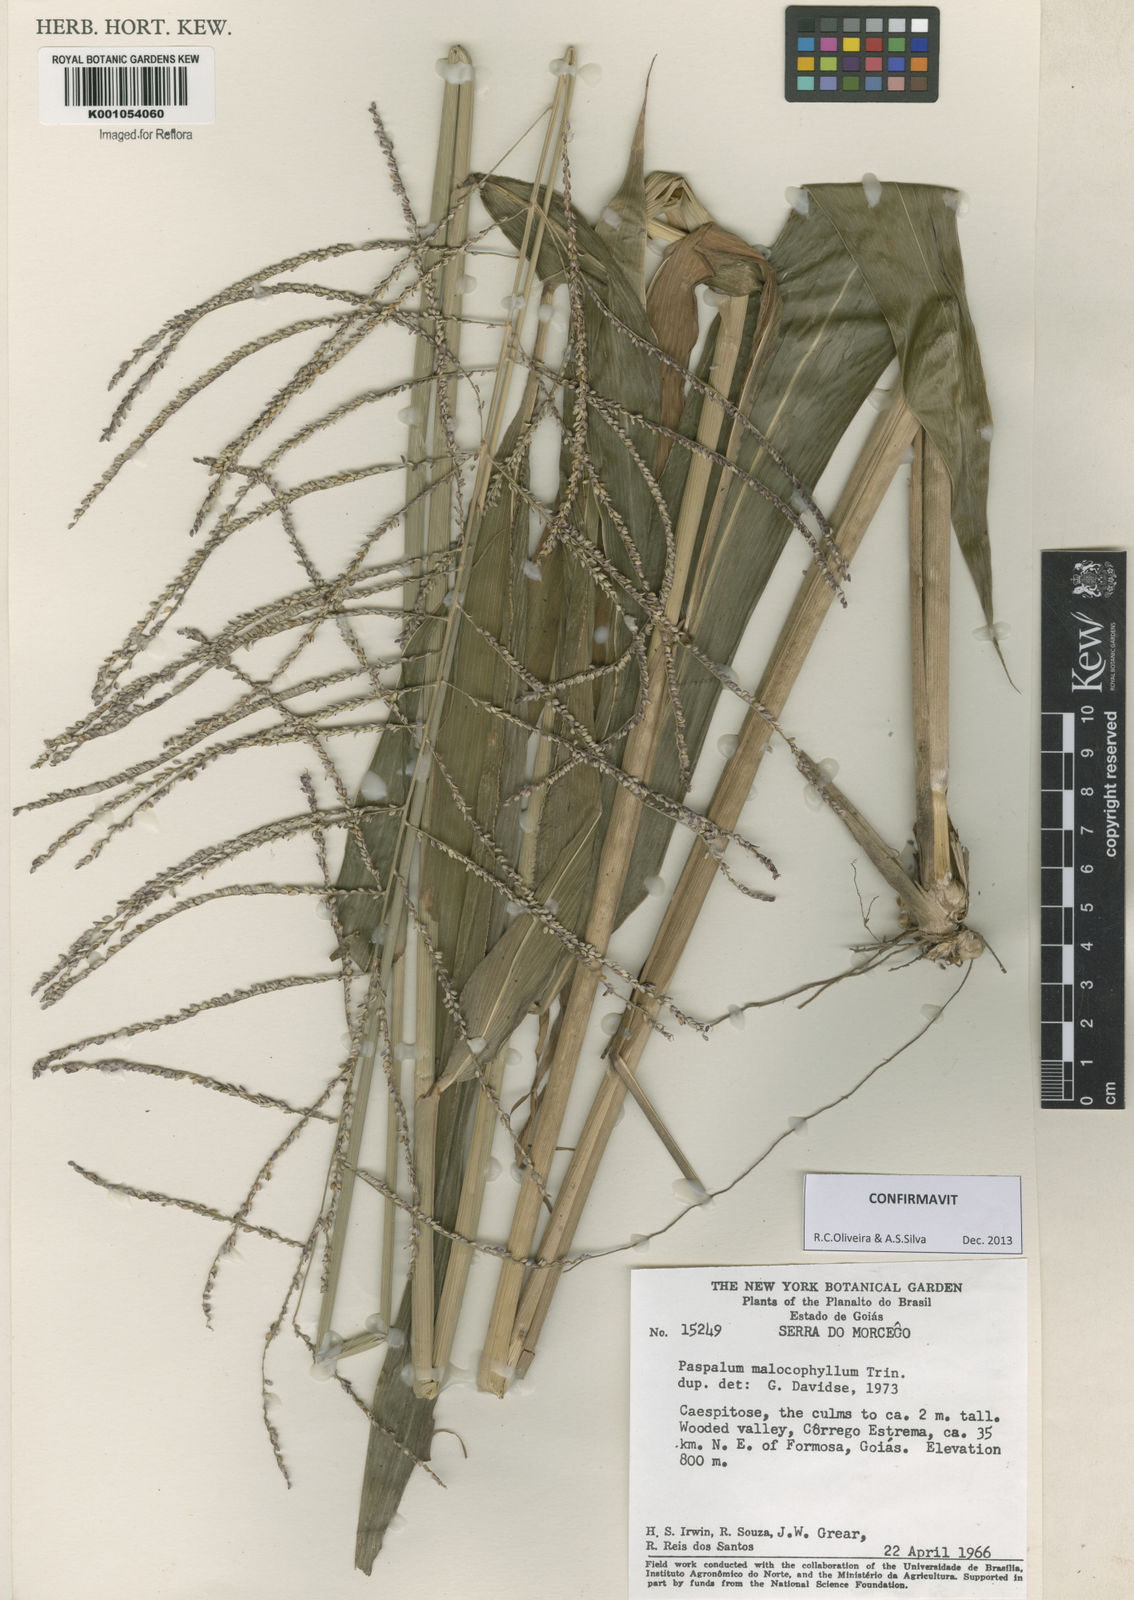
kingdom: Plantae
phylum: Tracheophyta
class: Liliopsida
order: Poales
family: Poaceae
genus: Paspalum
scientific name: Paspalum malacophyllum
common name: Ribbed paspalum
